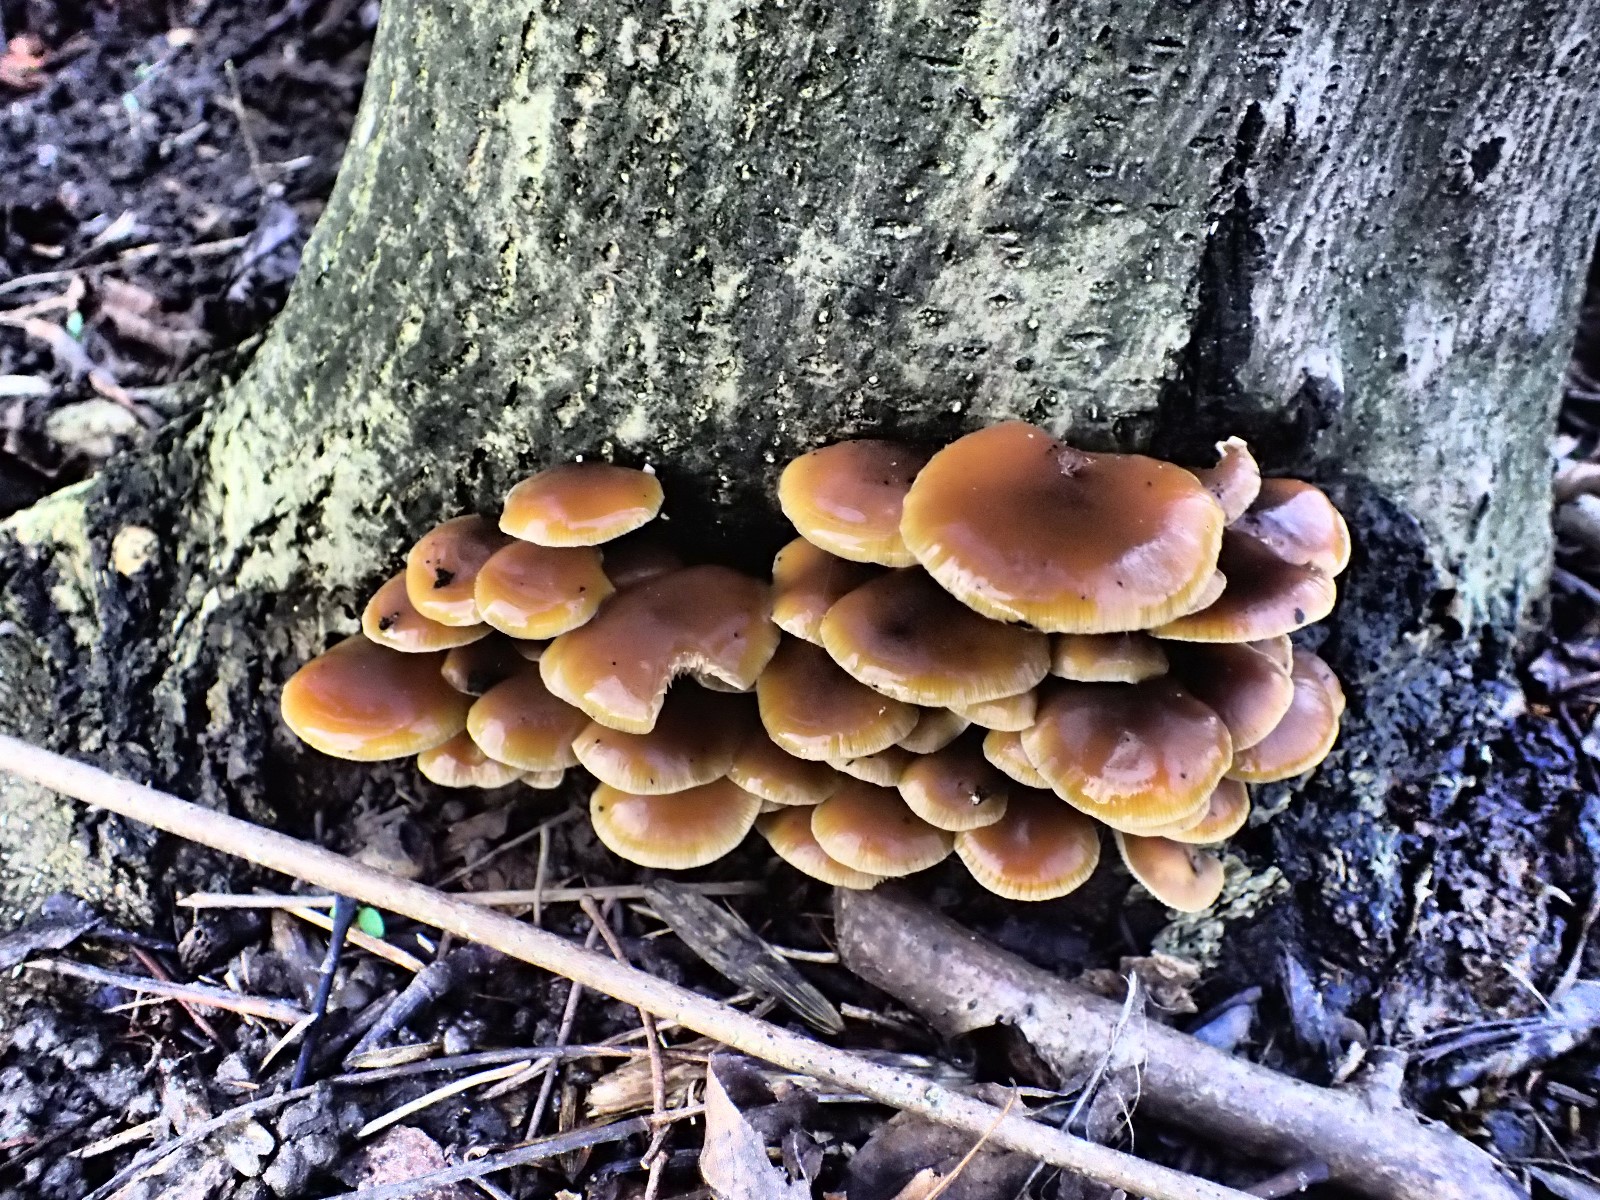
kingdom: Fungi
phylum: Basidiomycota
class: Agaricomycetes
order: Agaricales
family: Physalacriaceae
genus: Flammulina
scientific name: Flammulina velutipes
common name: gul fløjlsfod
